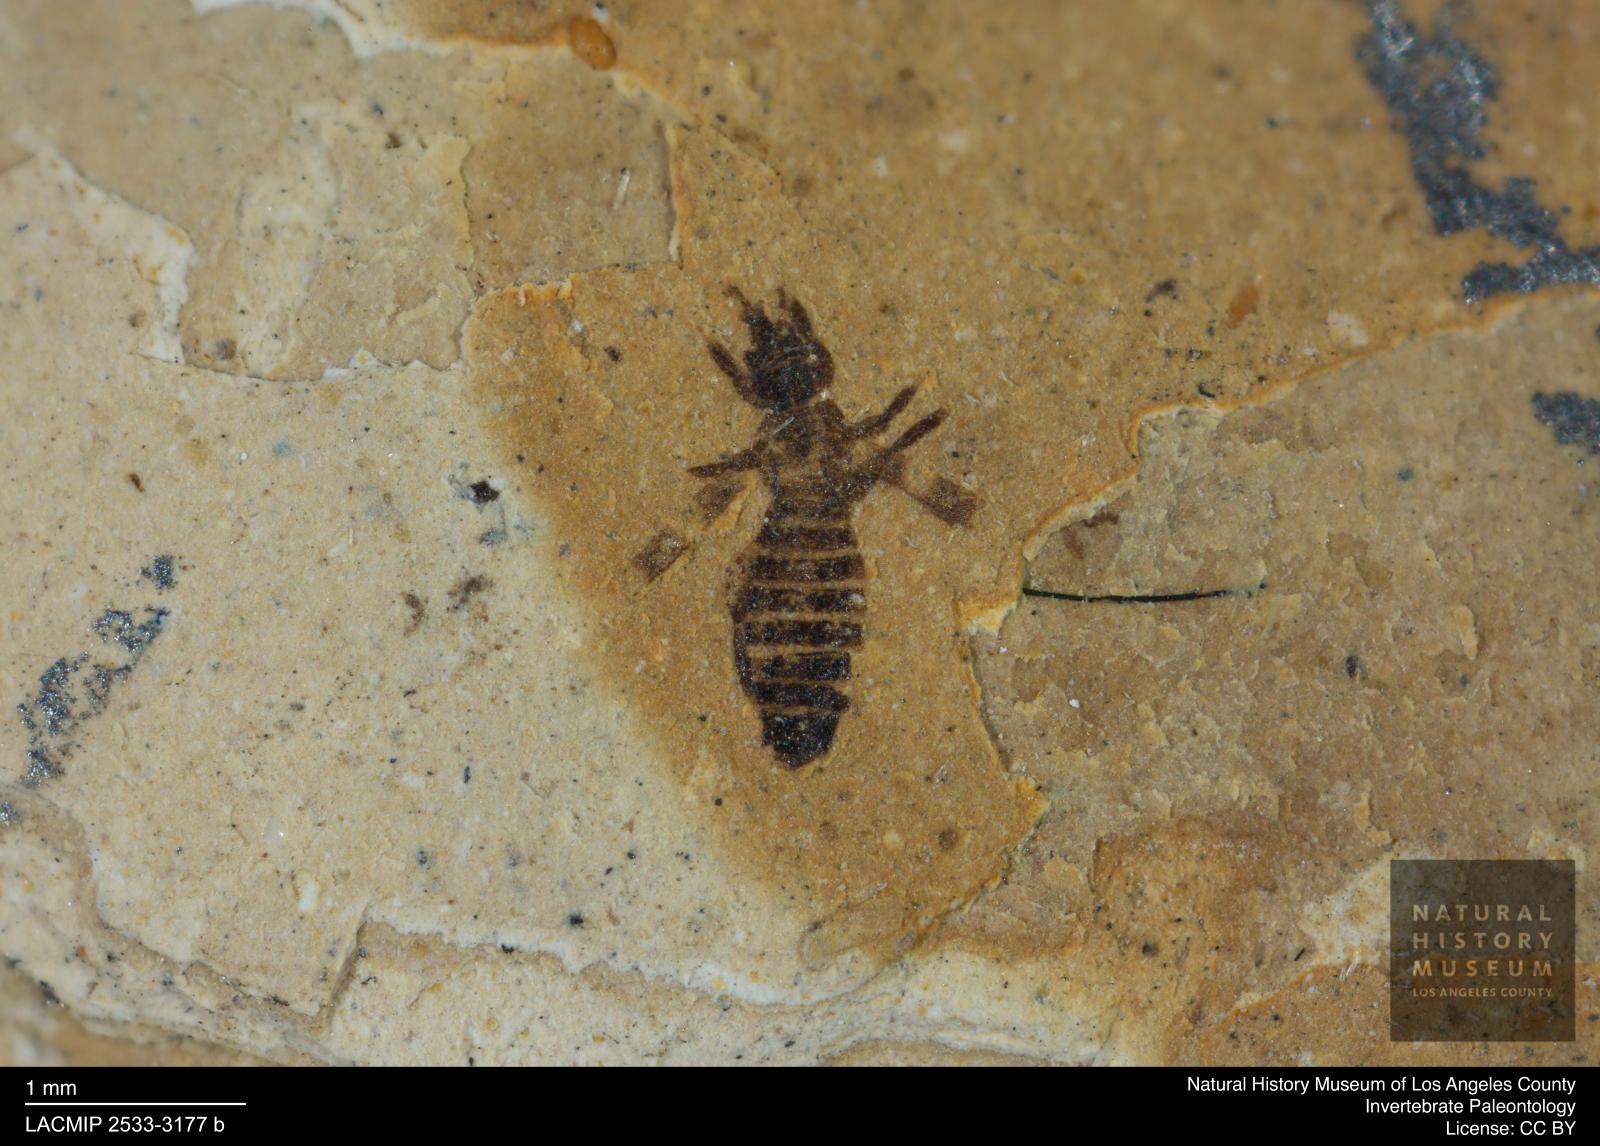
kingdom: Animalia
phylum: Arthropoda
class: Insecta
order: Thysanoptera
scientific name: Thysanoptera
